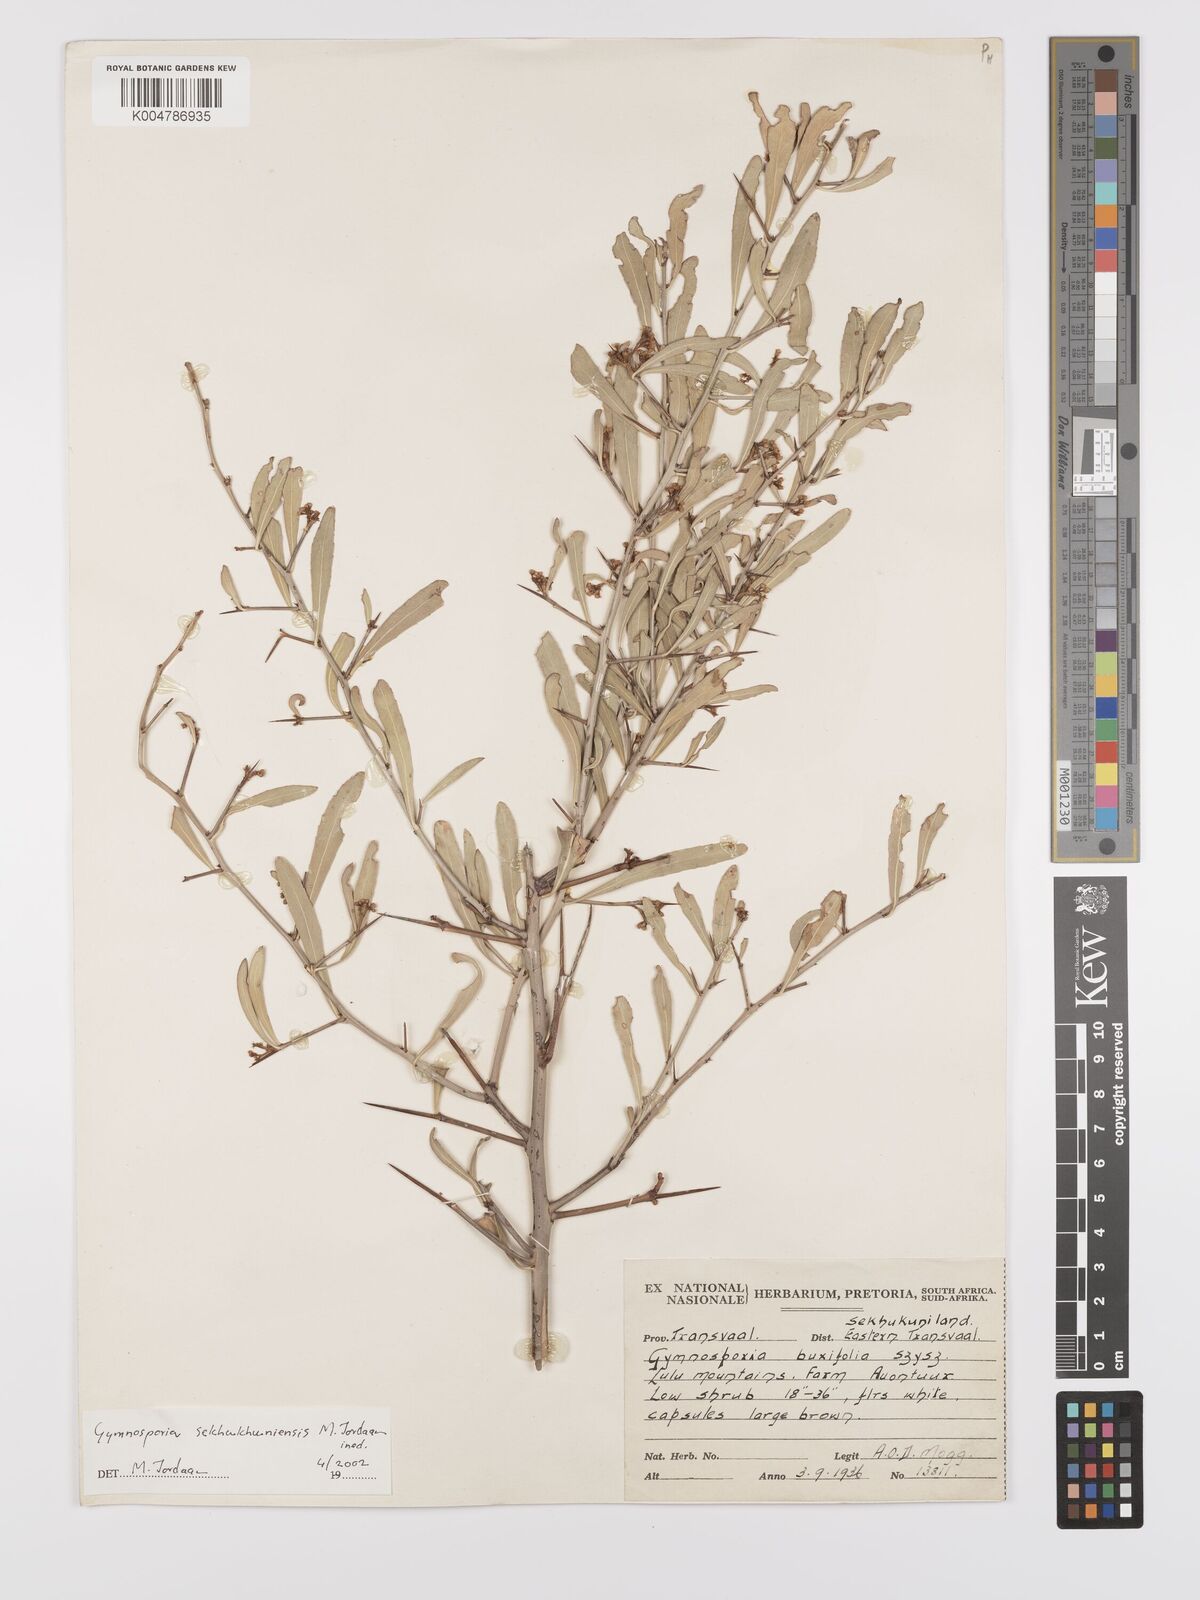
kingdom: Plantae
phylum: Tracheophyta
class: Magnoliopsida
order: Celastrales
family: Celastraceae
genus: Gymnosporia
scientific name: Gymnosporia sekhukhuniensis
